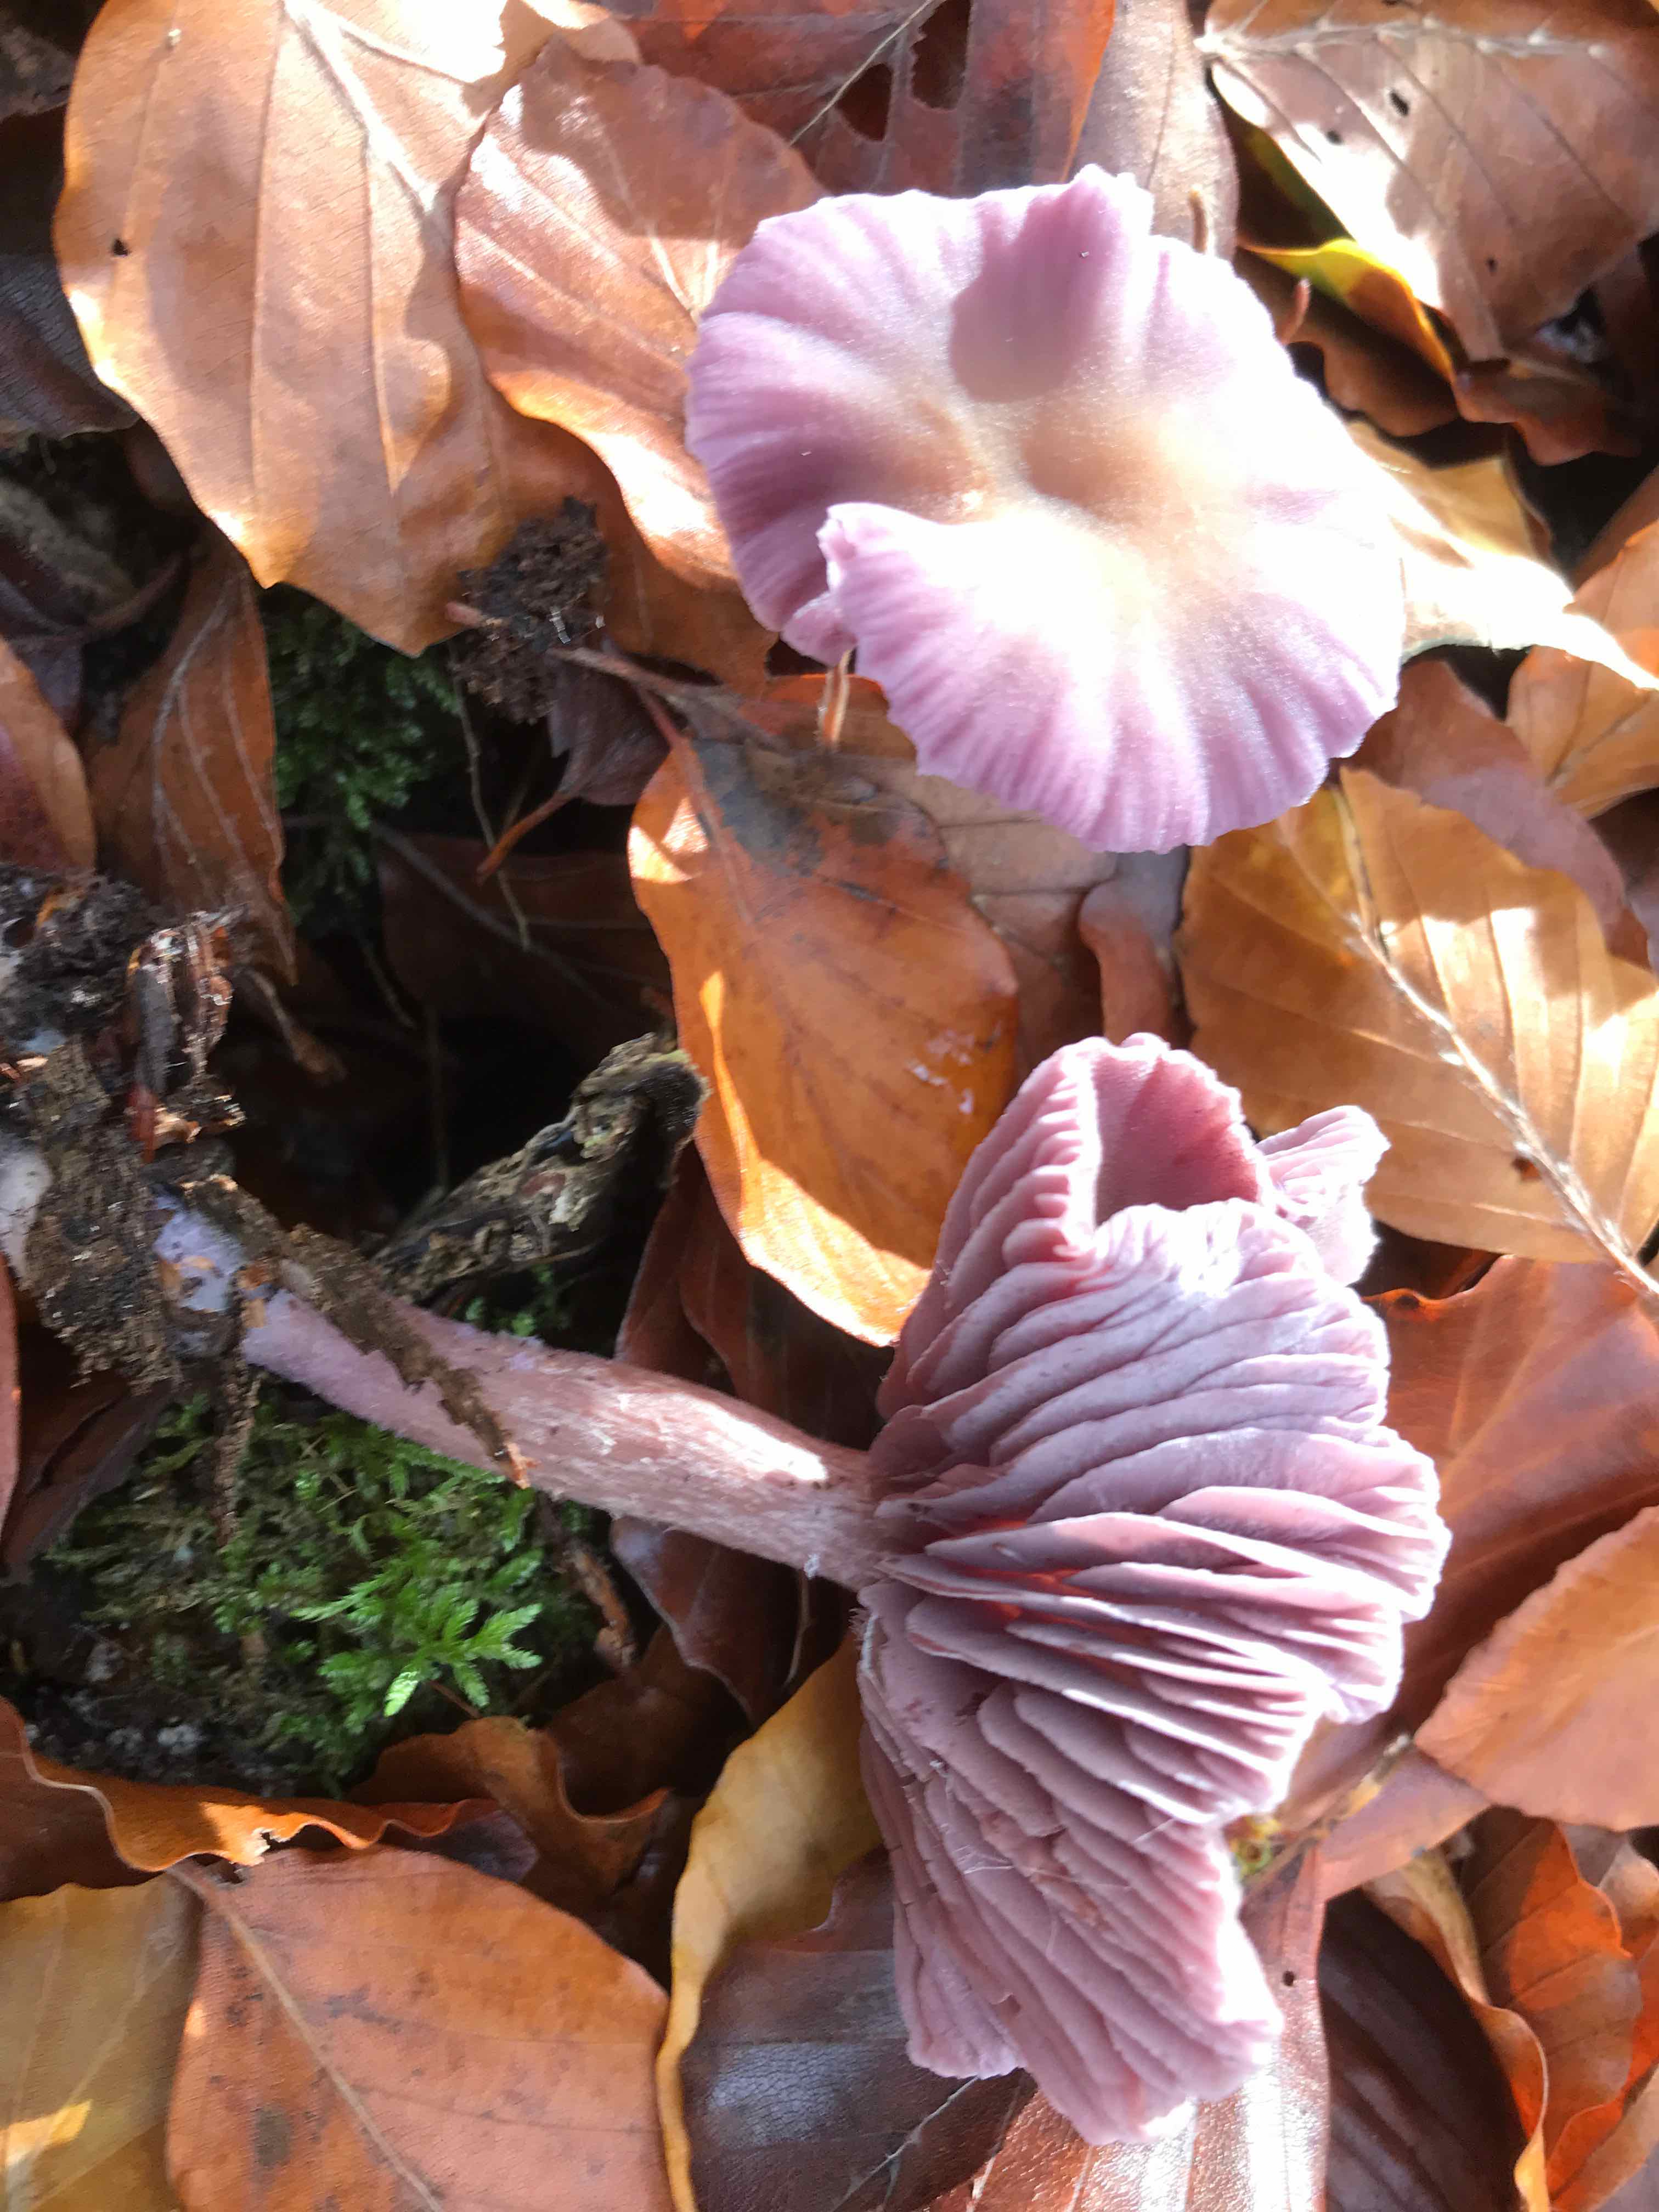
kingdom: Fungi
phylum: Basidiomycota
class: Agaricomycetes
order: Agaricales
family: Hydnangiaceae
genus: Laccaria
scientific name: Laccaria amethystina
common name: violet ametysthat
